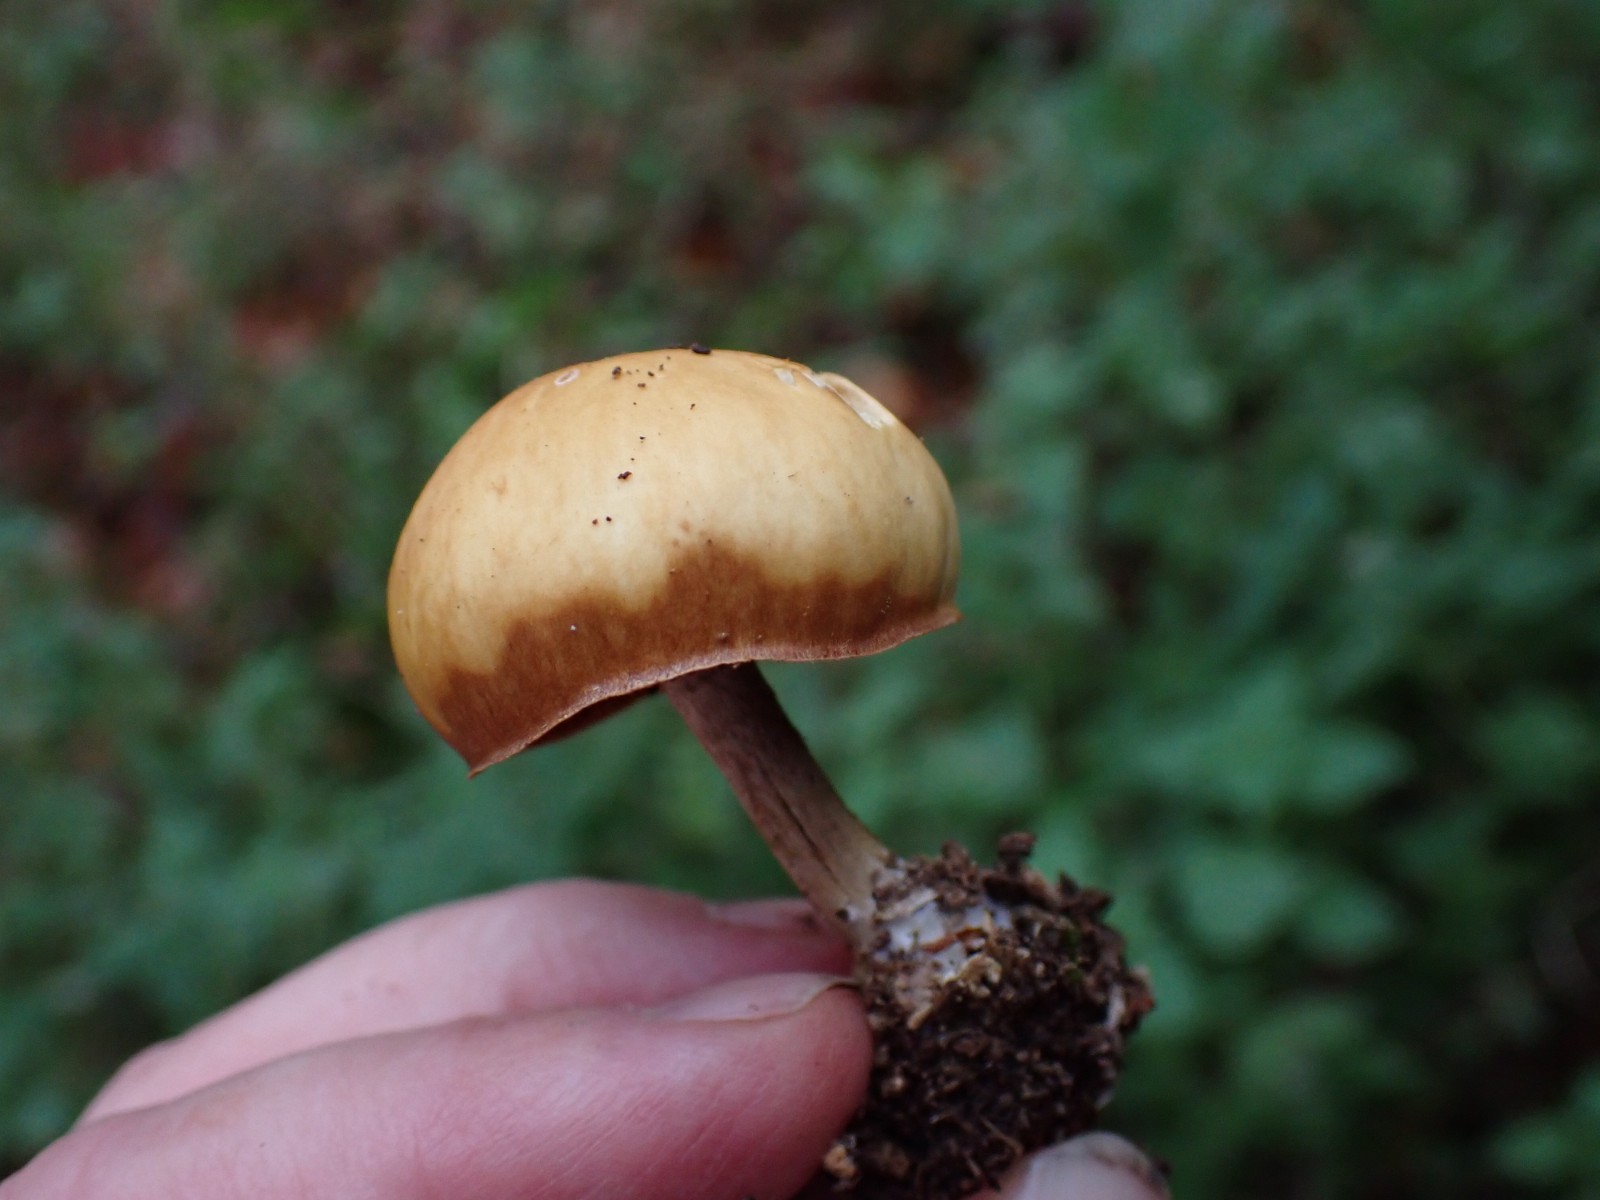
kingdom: Fungi
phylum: Basidiomycota
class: Agaricomycetes
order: Agaricales
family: Hymenogastraceae
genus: Galerina
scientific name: Galerina marginata
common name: randbæltet hjelmhat
